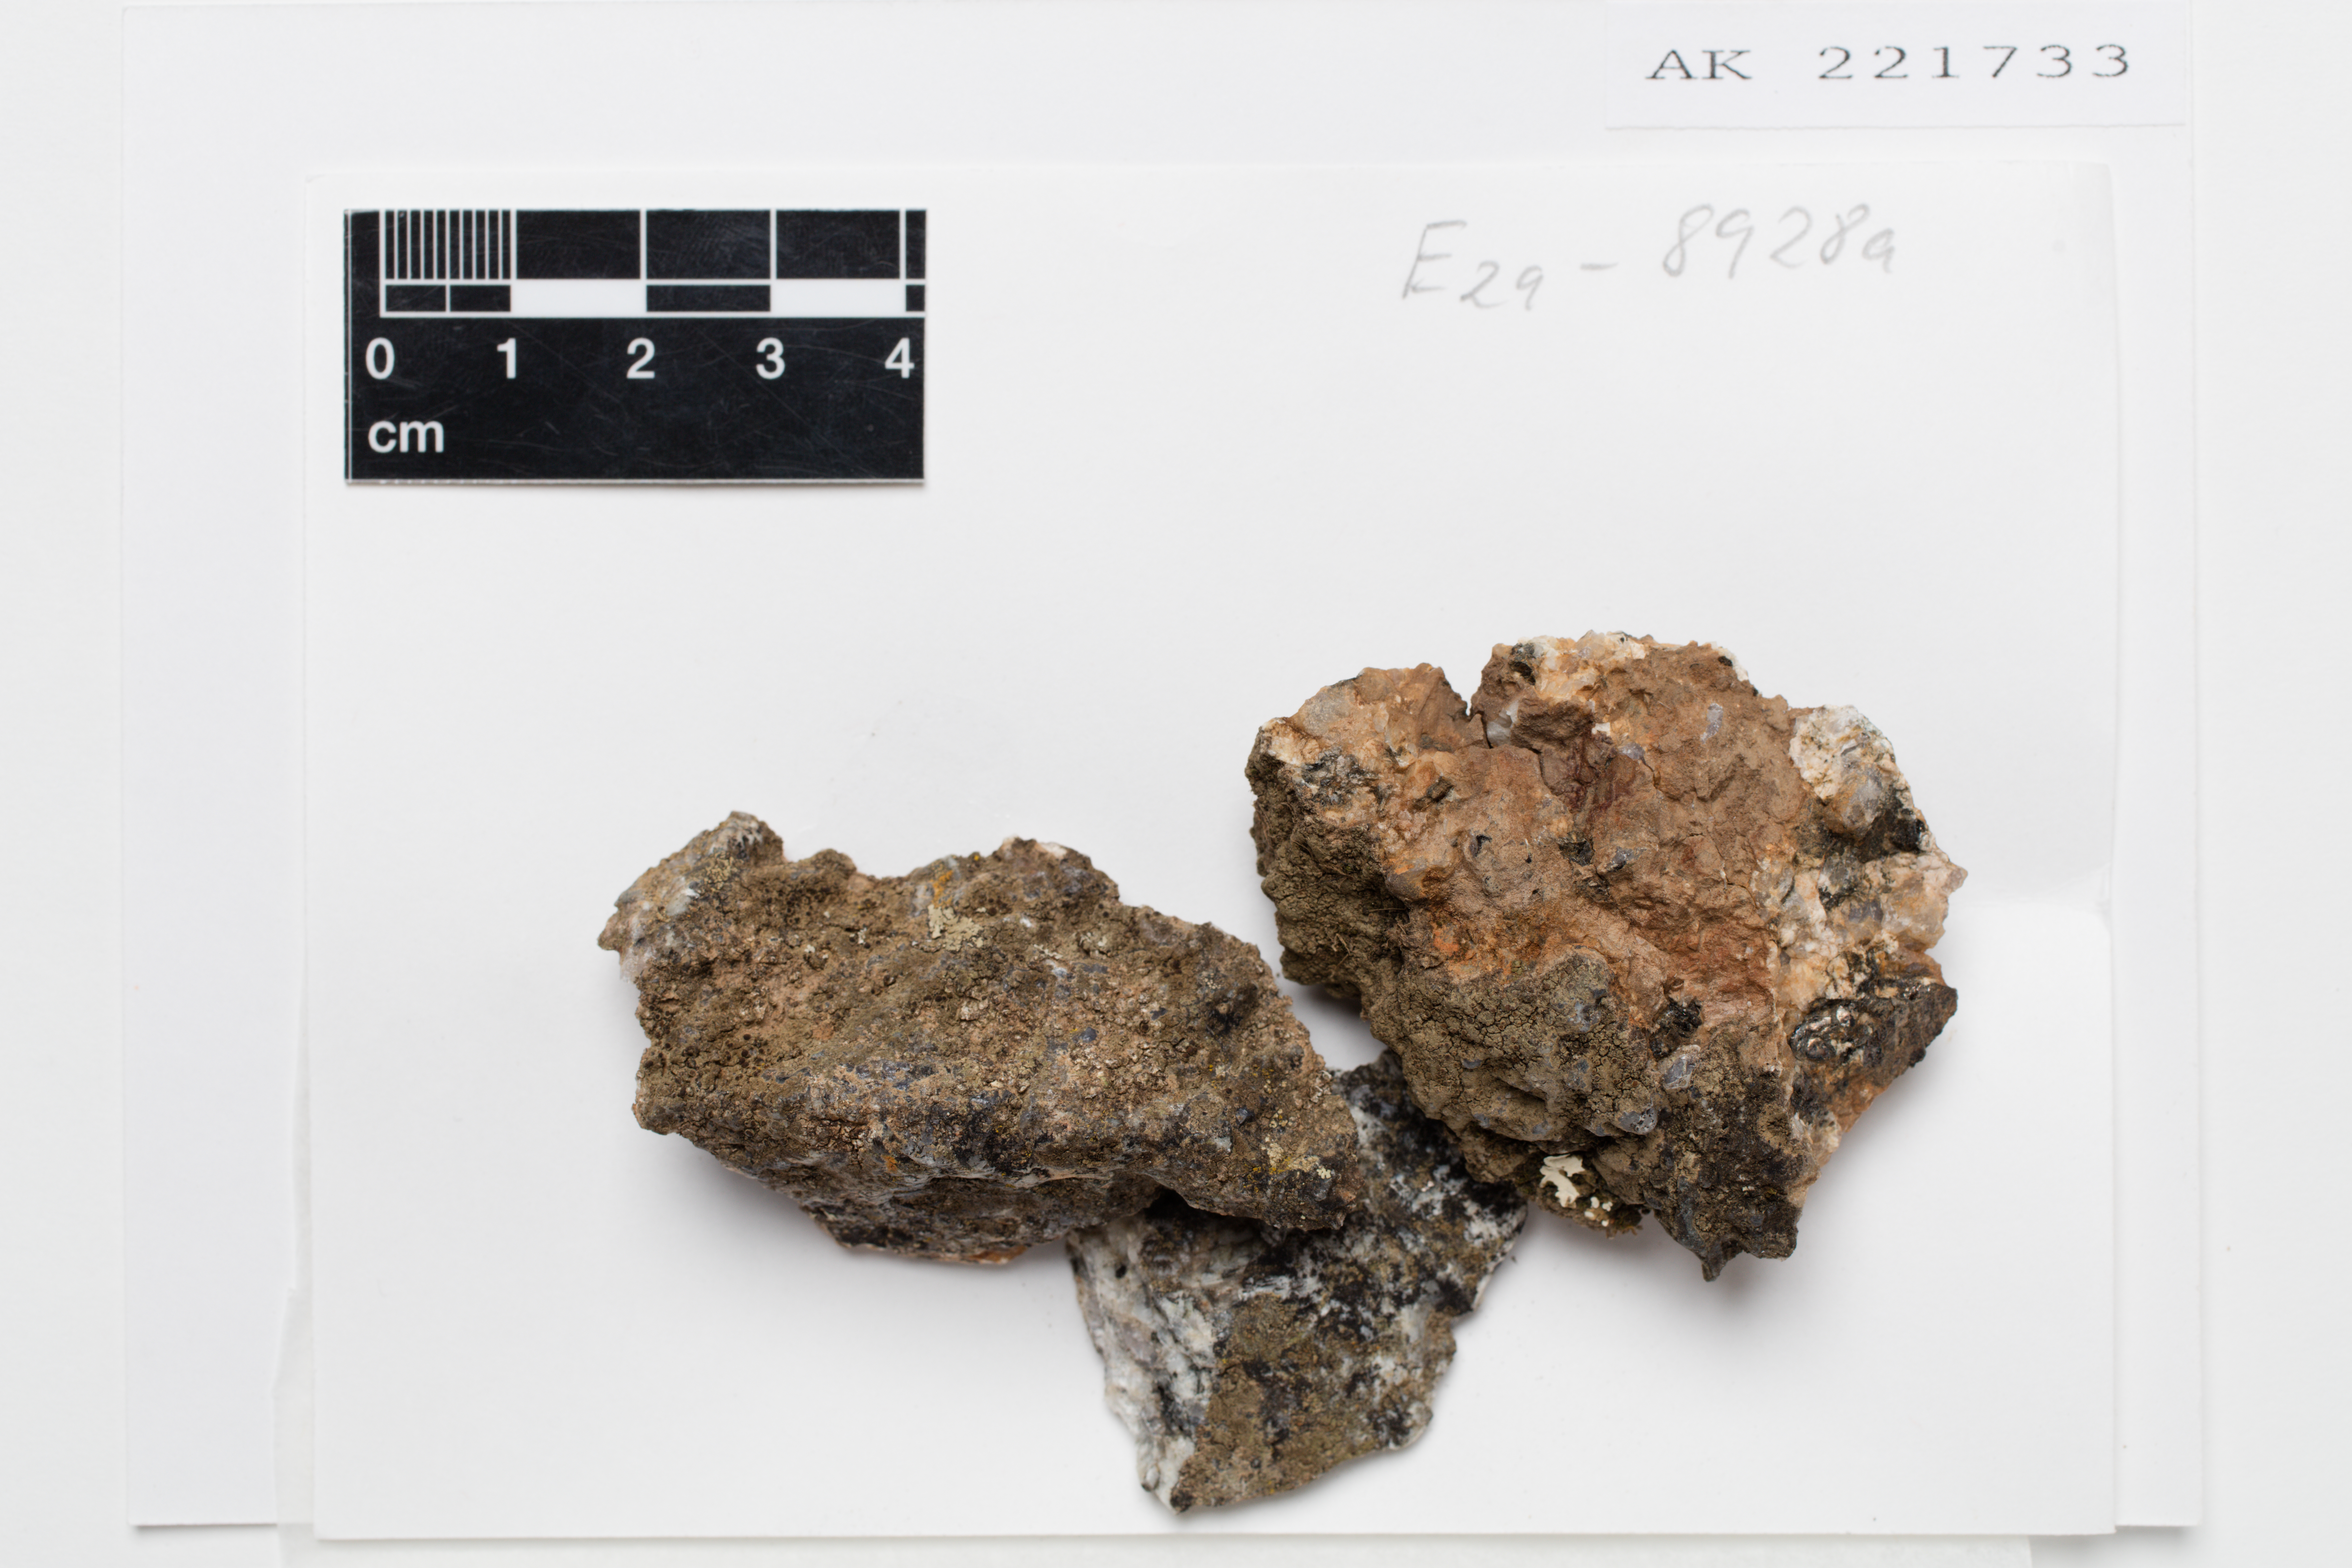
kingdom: Fungi
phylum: Ascomycota
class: Lecanoromycetes
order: Teloschistales
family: Leprocaulaceae
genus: Halecania
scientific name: Halecania australis
